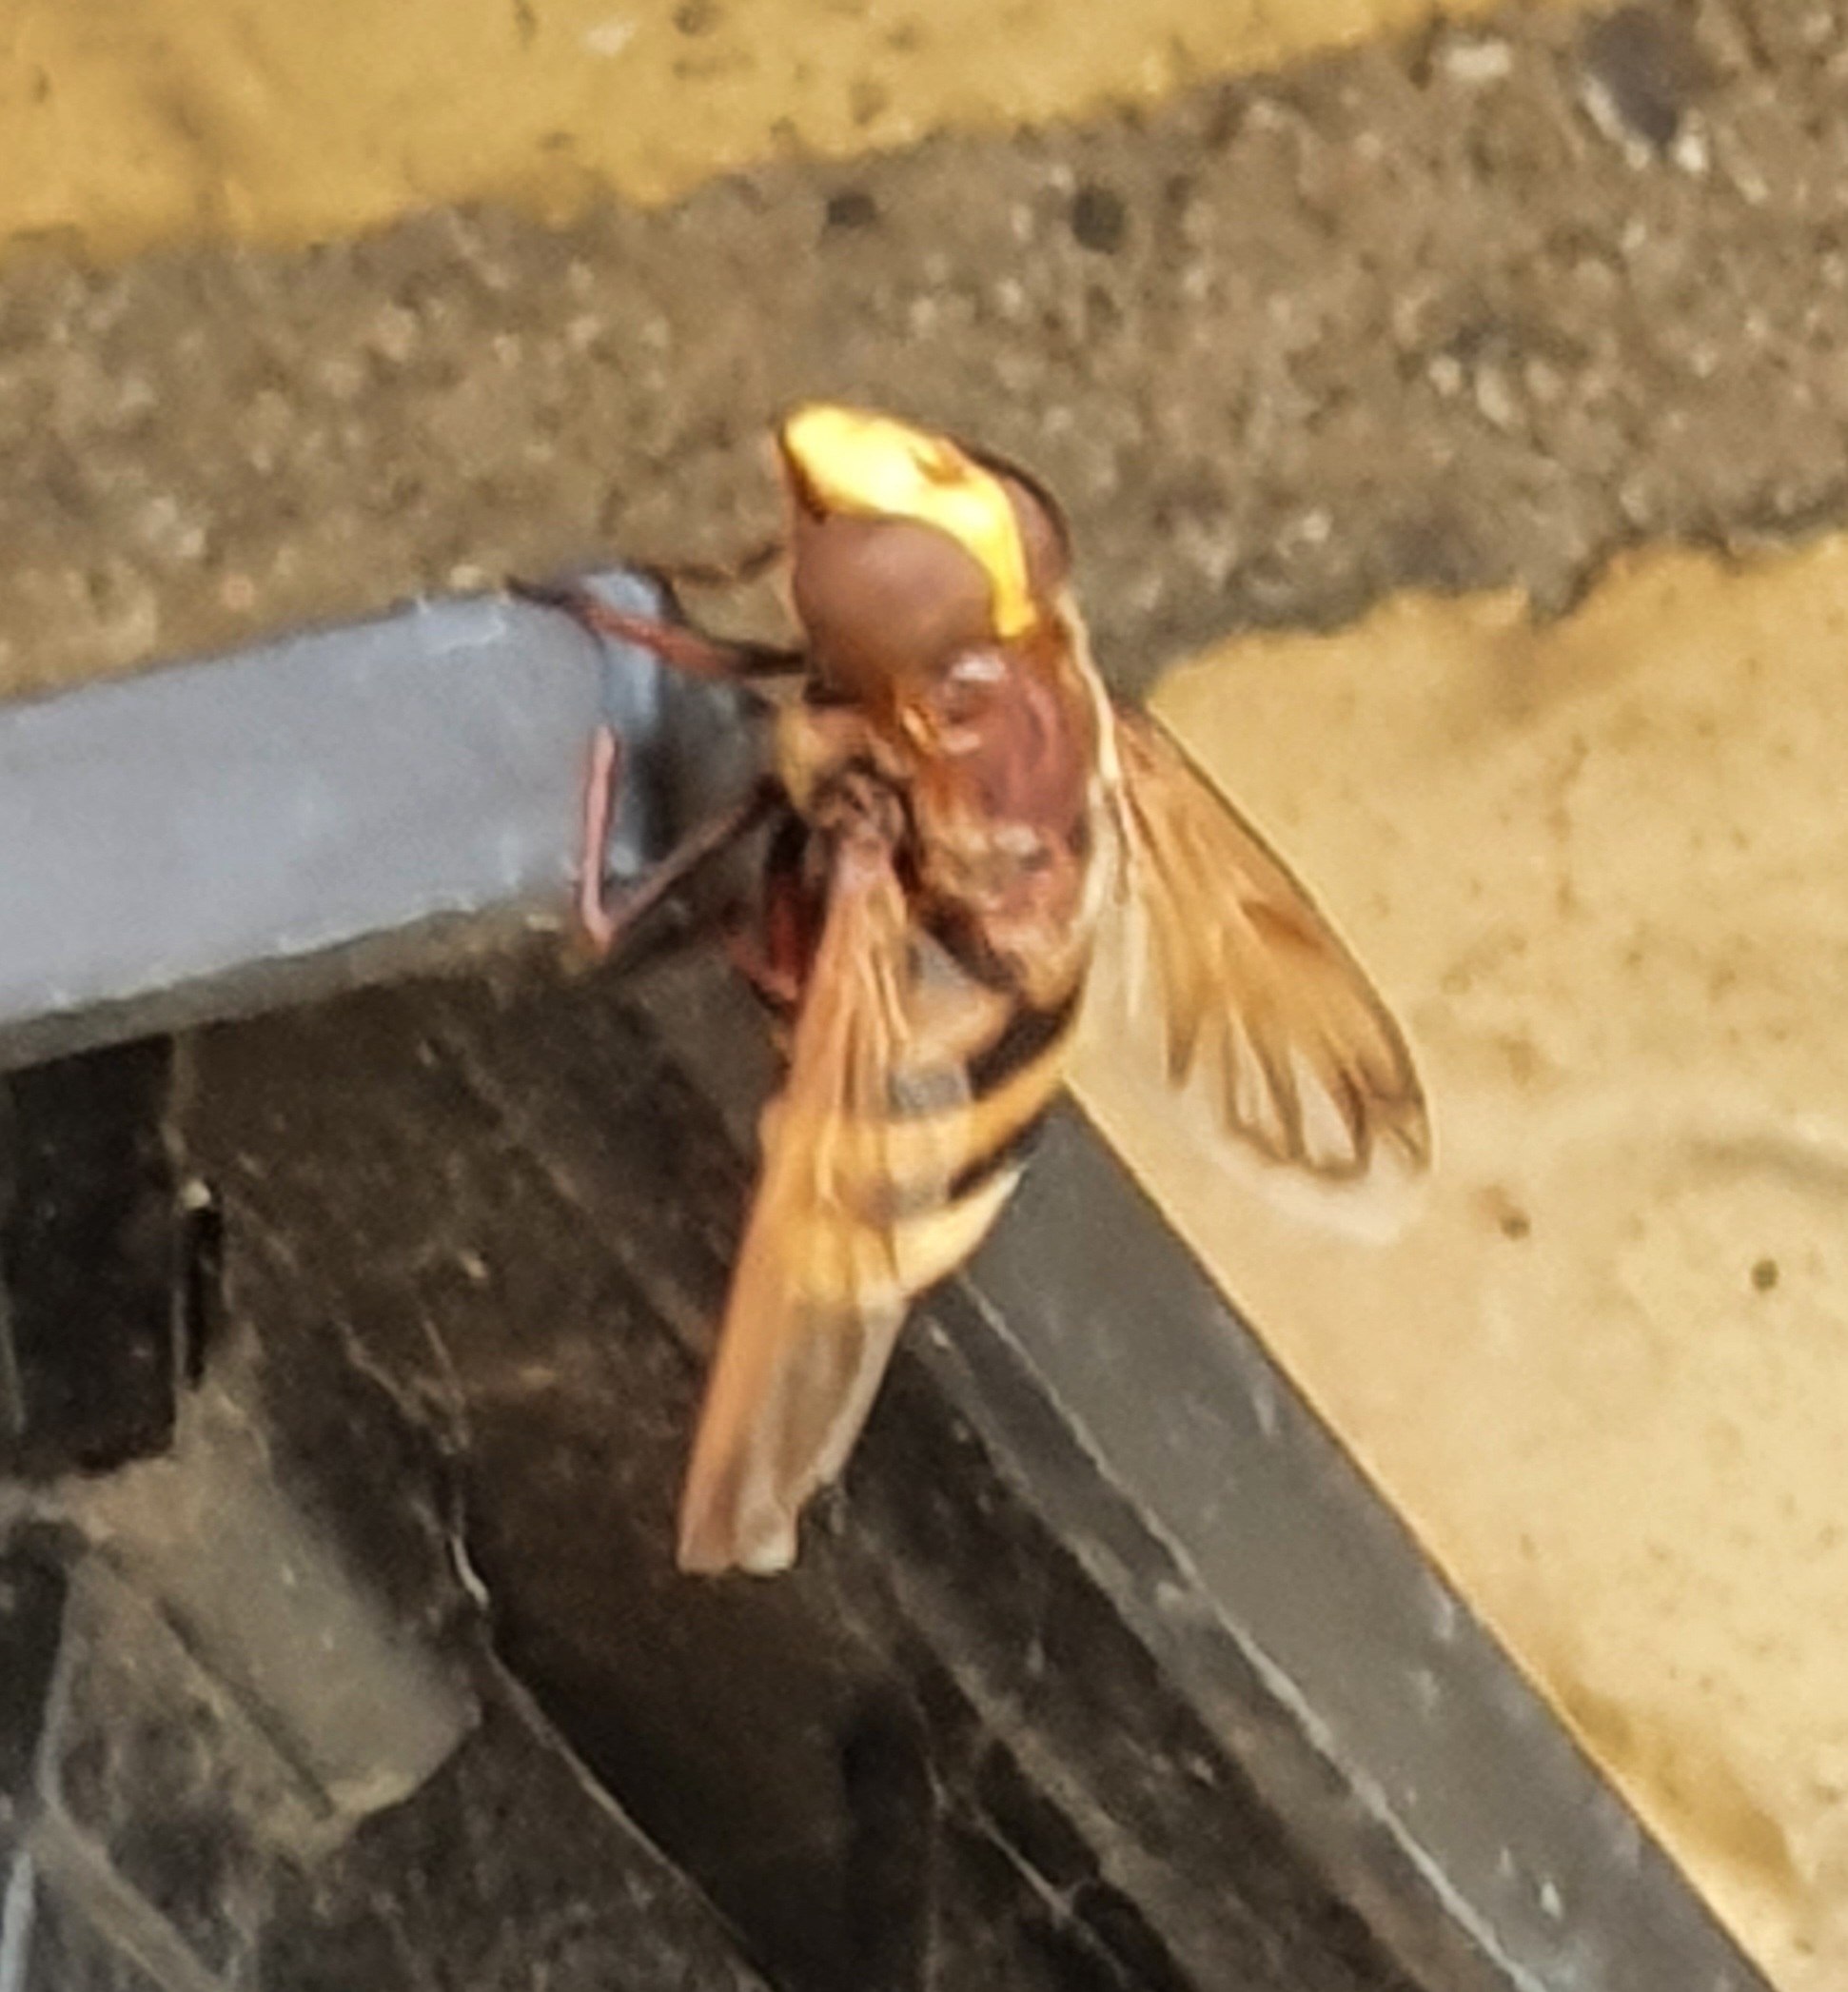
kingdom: Animalia
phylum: Arthropoda
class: Insecta
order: Diptera
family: Syrphidae
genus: Volucella
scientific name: Volucella zonaria
